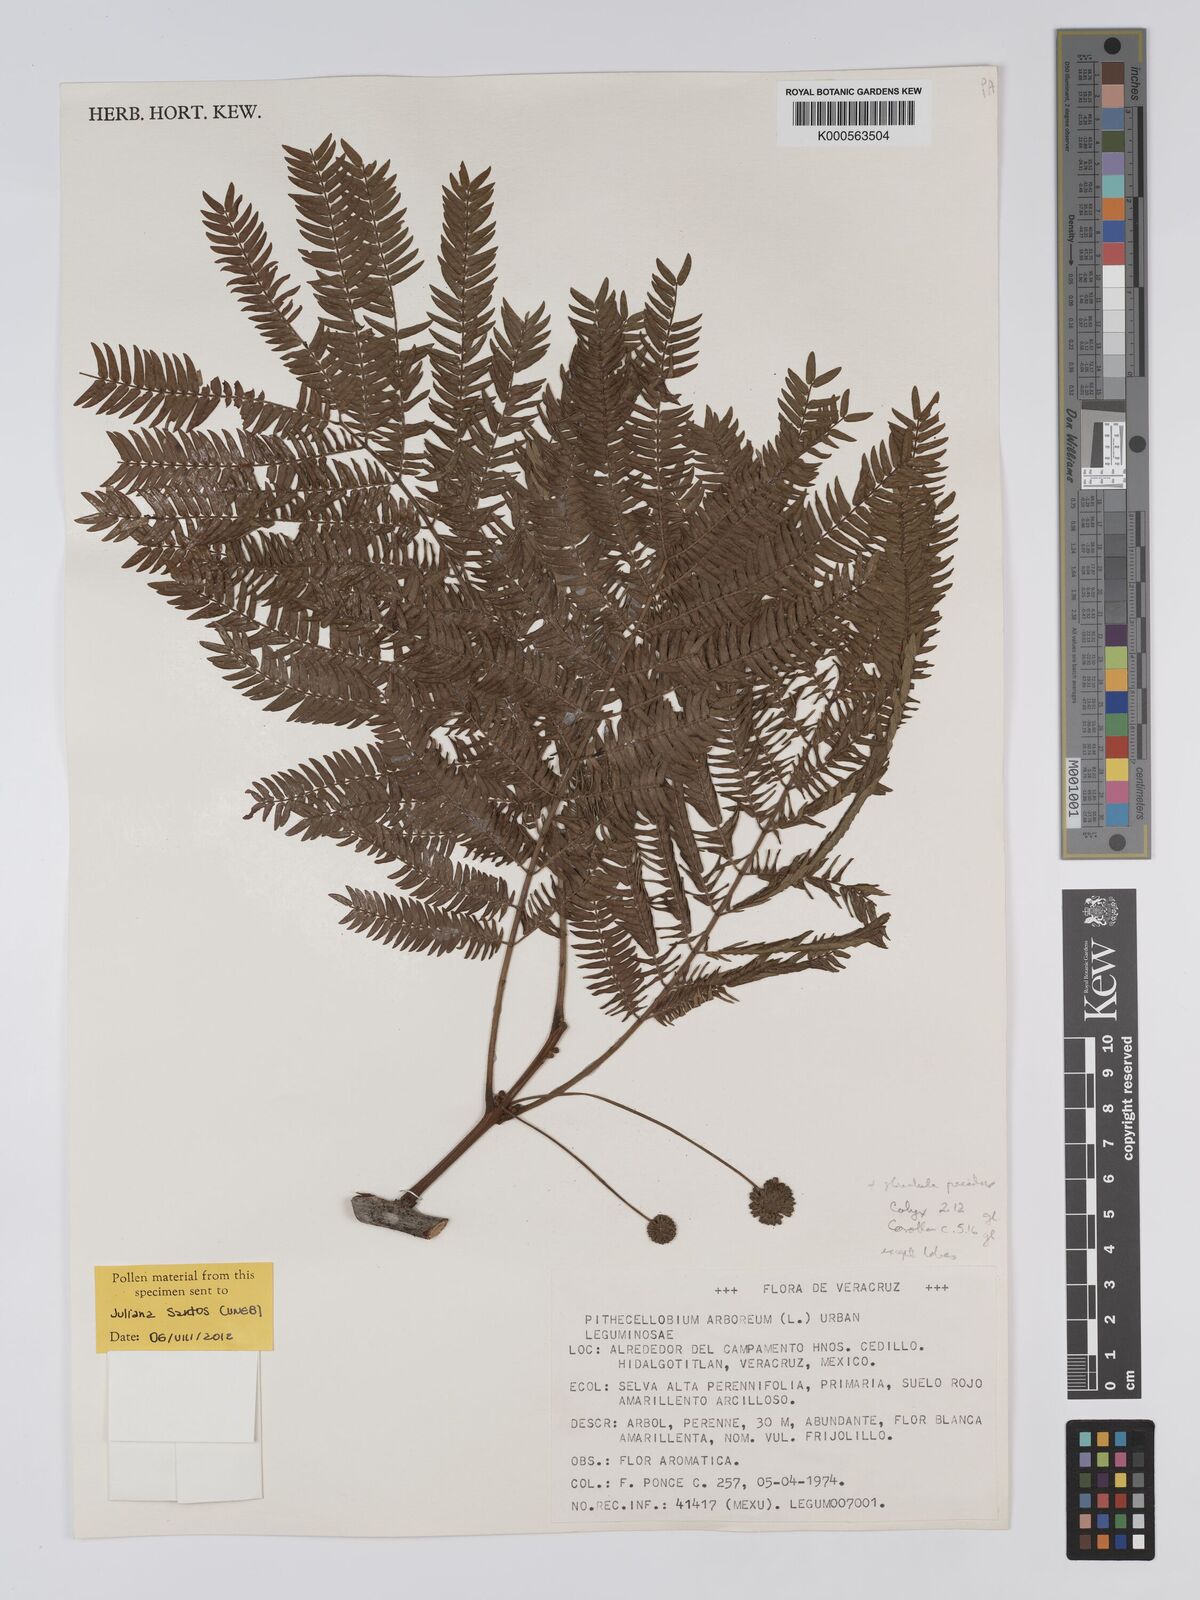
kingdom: Plantae
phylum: Tracheophyta
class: Magnoliopsida
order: Fabales
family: Fabaceae
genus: Cojoba
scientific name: Cojoba arborea
